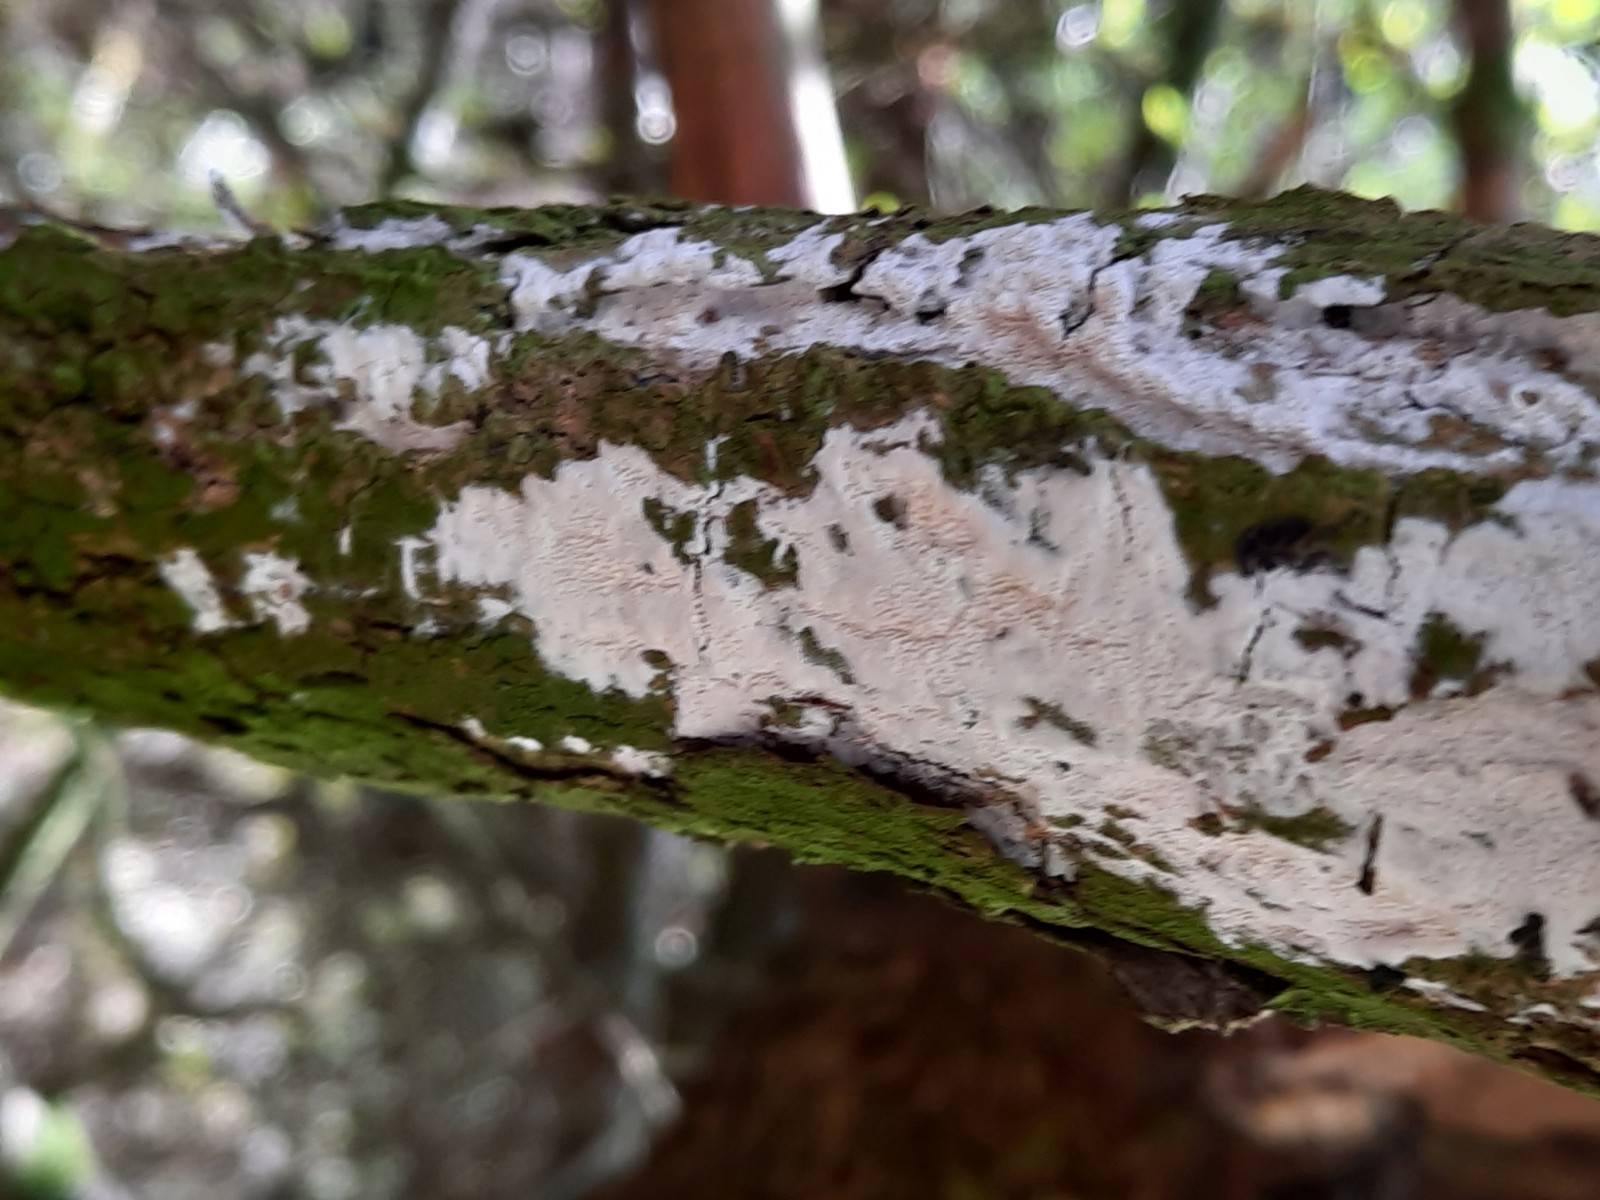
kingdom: Fungi
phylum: Basidiomycota
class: Agaricomycetes
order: Corticiales
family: Corticiaceae
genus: Lyomyces
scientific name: Lyomyces sambuci
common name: almindelig hyldehinde
